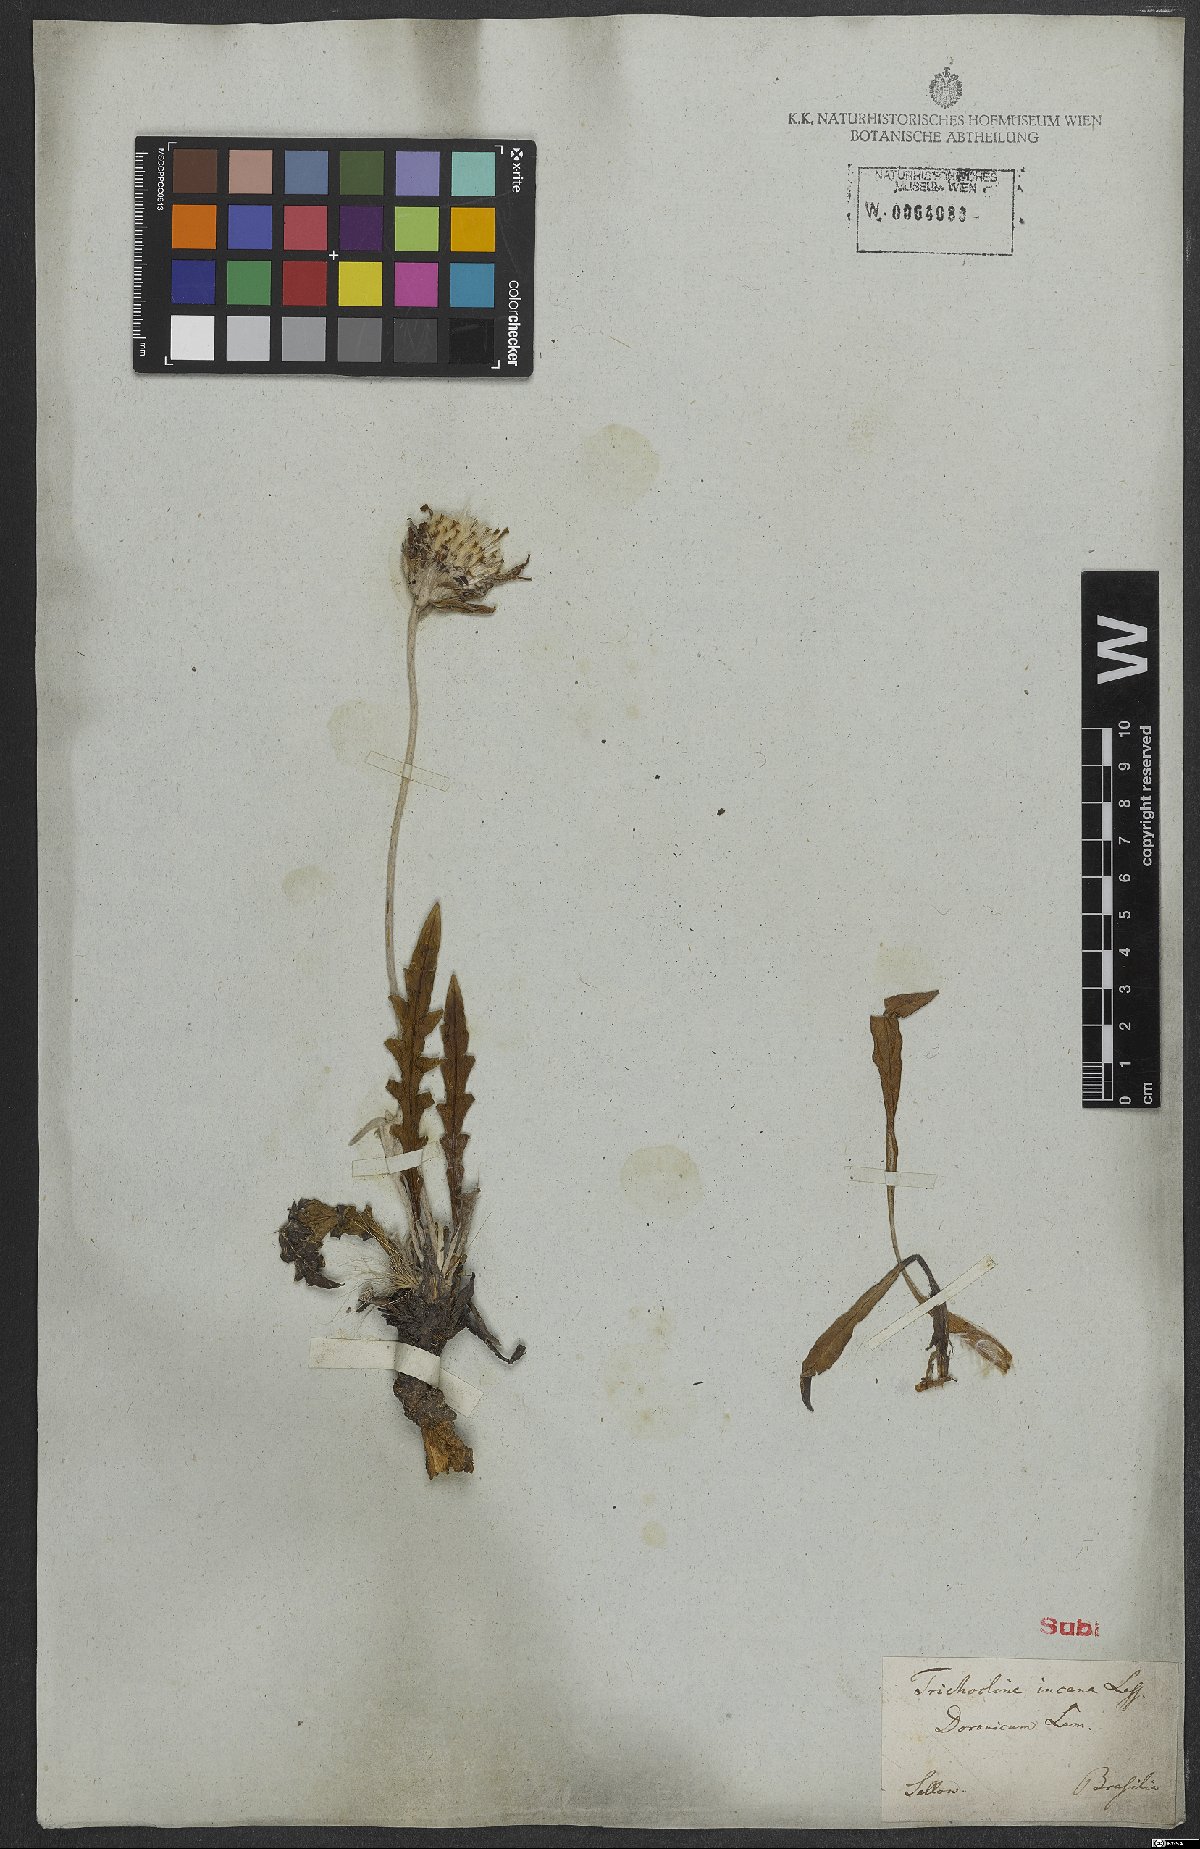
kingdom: Plantae
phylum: Tracheophyta
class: Magnoliopsida
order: Asterales
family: Asteraceae
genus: Trichocline
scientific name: Trichocline incana
